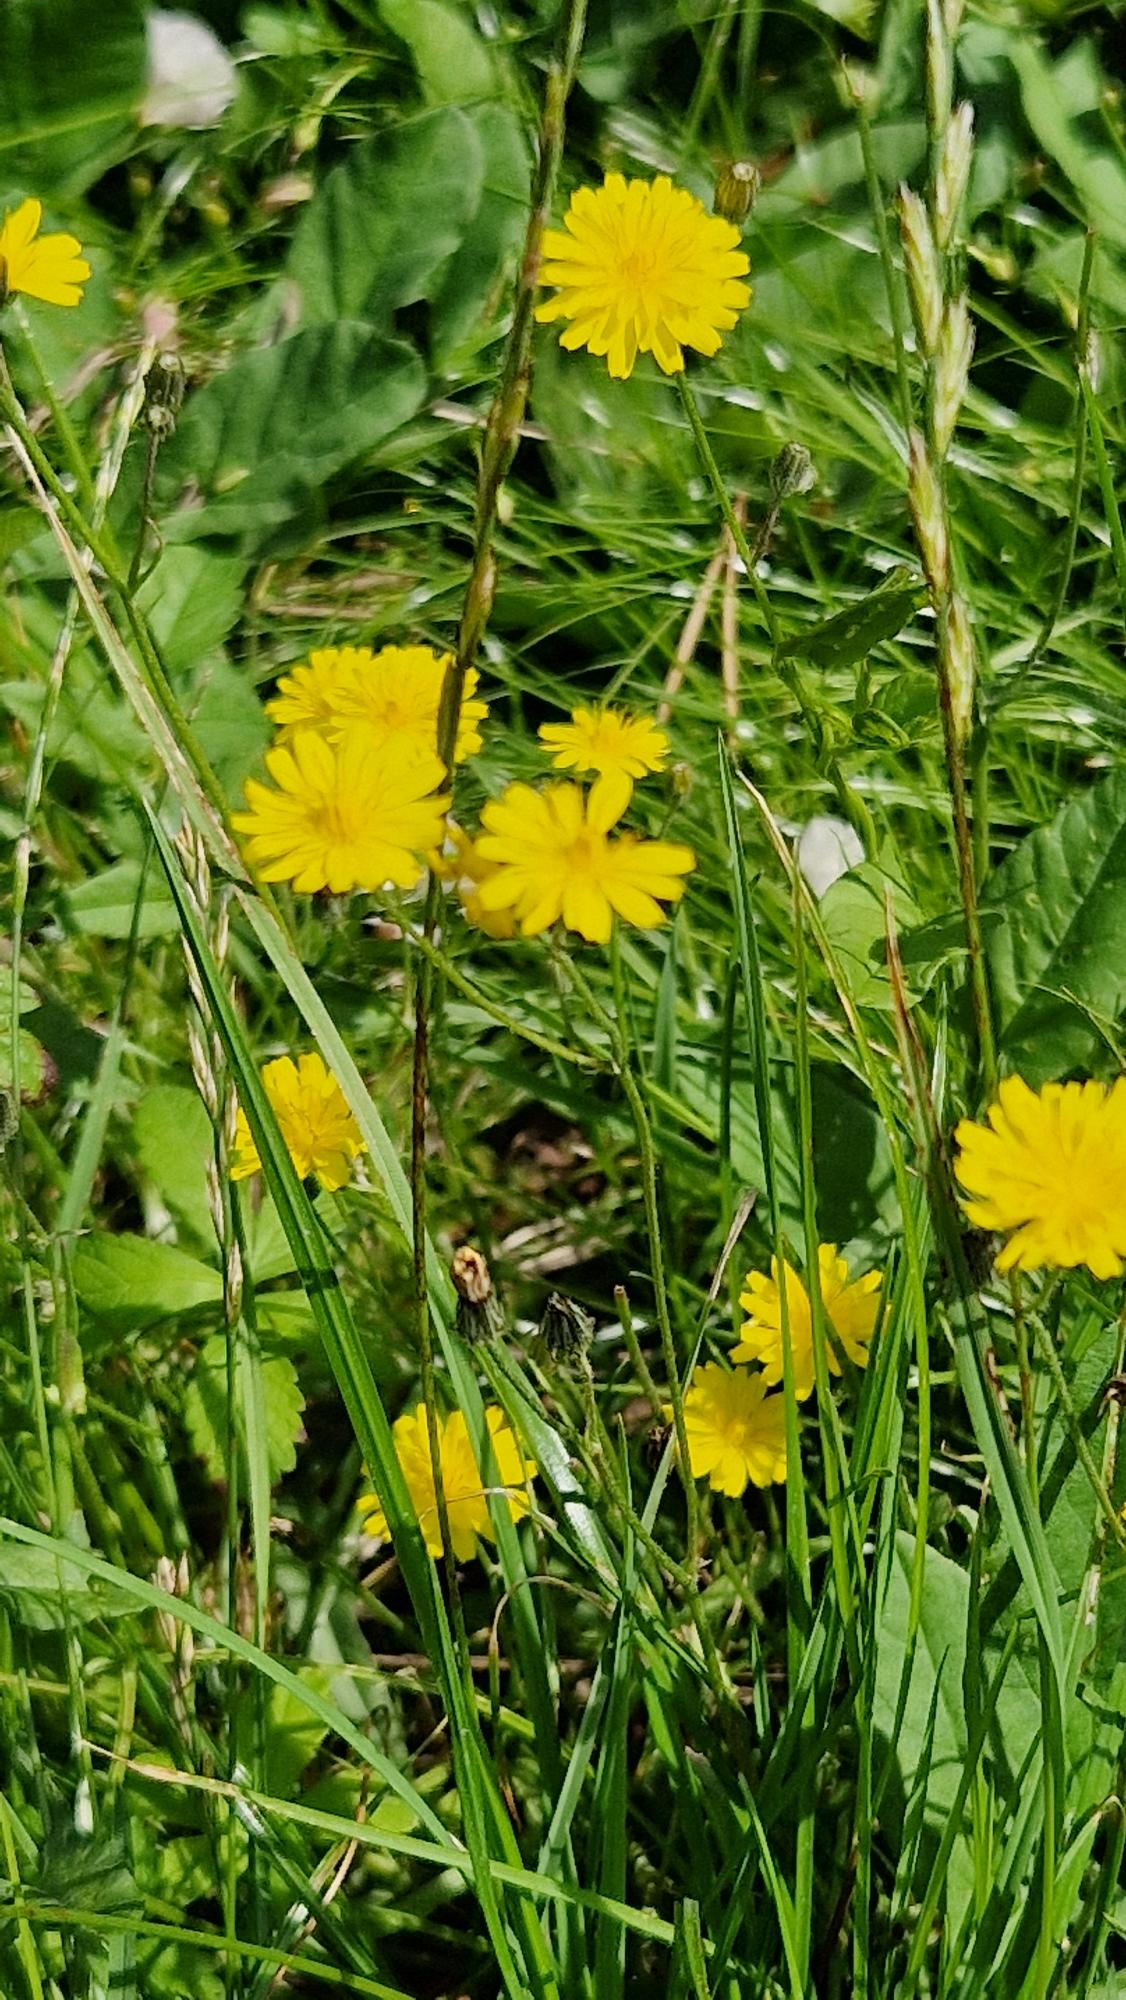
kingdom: Plantae
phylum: Tracheophyta
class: Magnoliopsida
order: Asterales
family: Asteraceae
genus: Crepis
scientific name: Crepis capillaris
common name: Grøn høgeskæg
